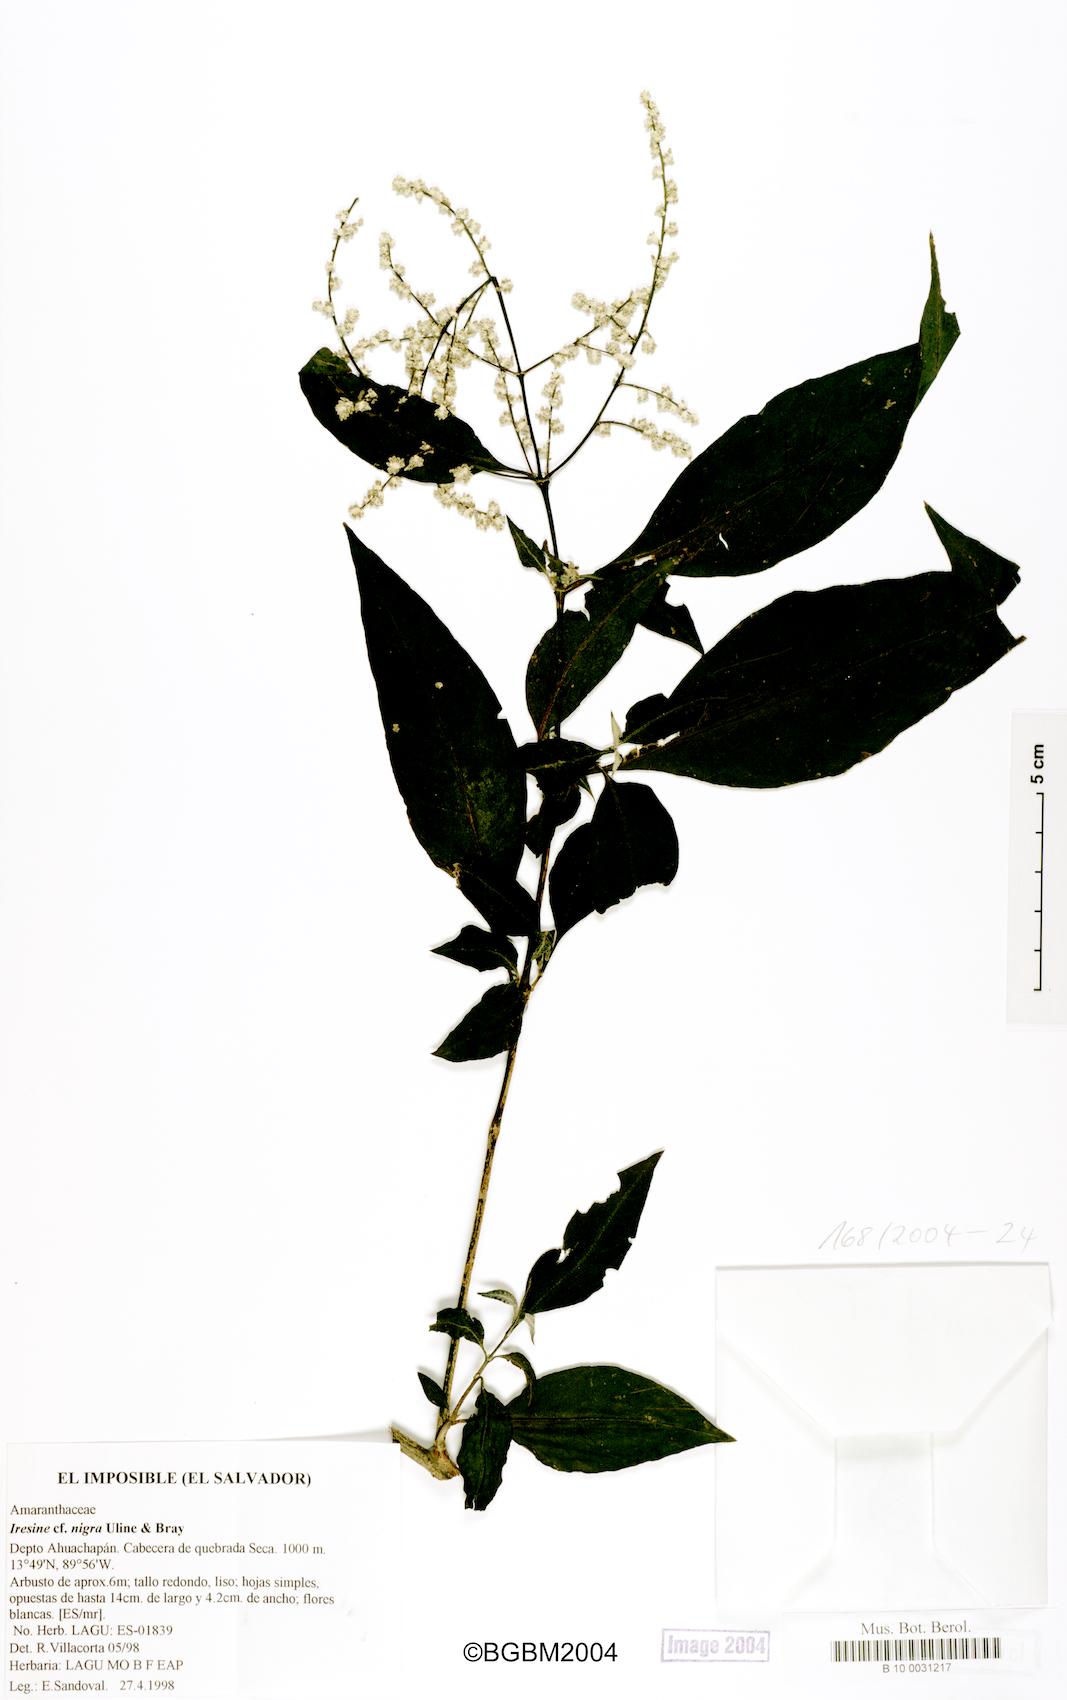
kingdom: Plantae
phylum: Tracheophyta
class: Magnoliopsida
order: Caryophyllales
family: Amaranthaceae
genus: Iresine
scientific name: Iresine nigra
